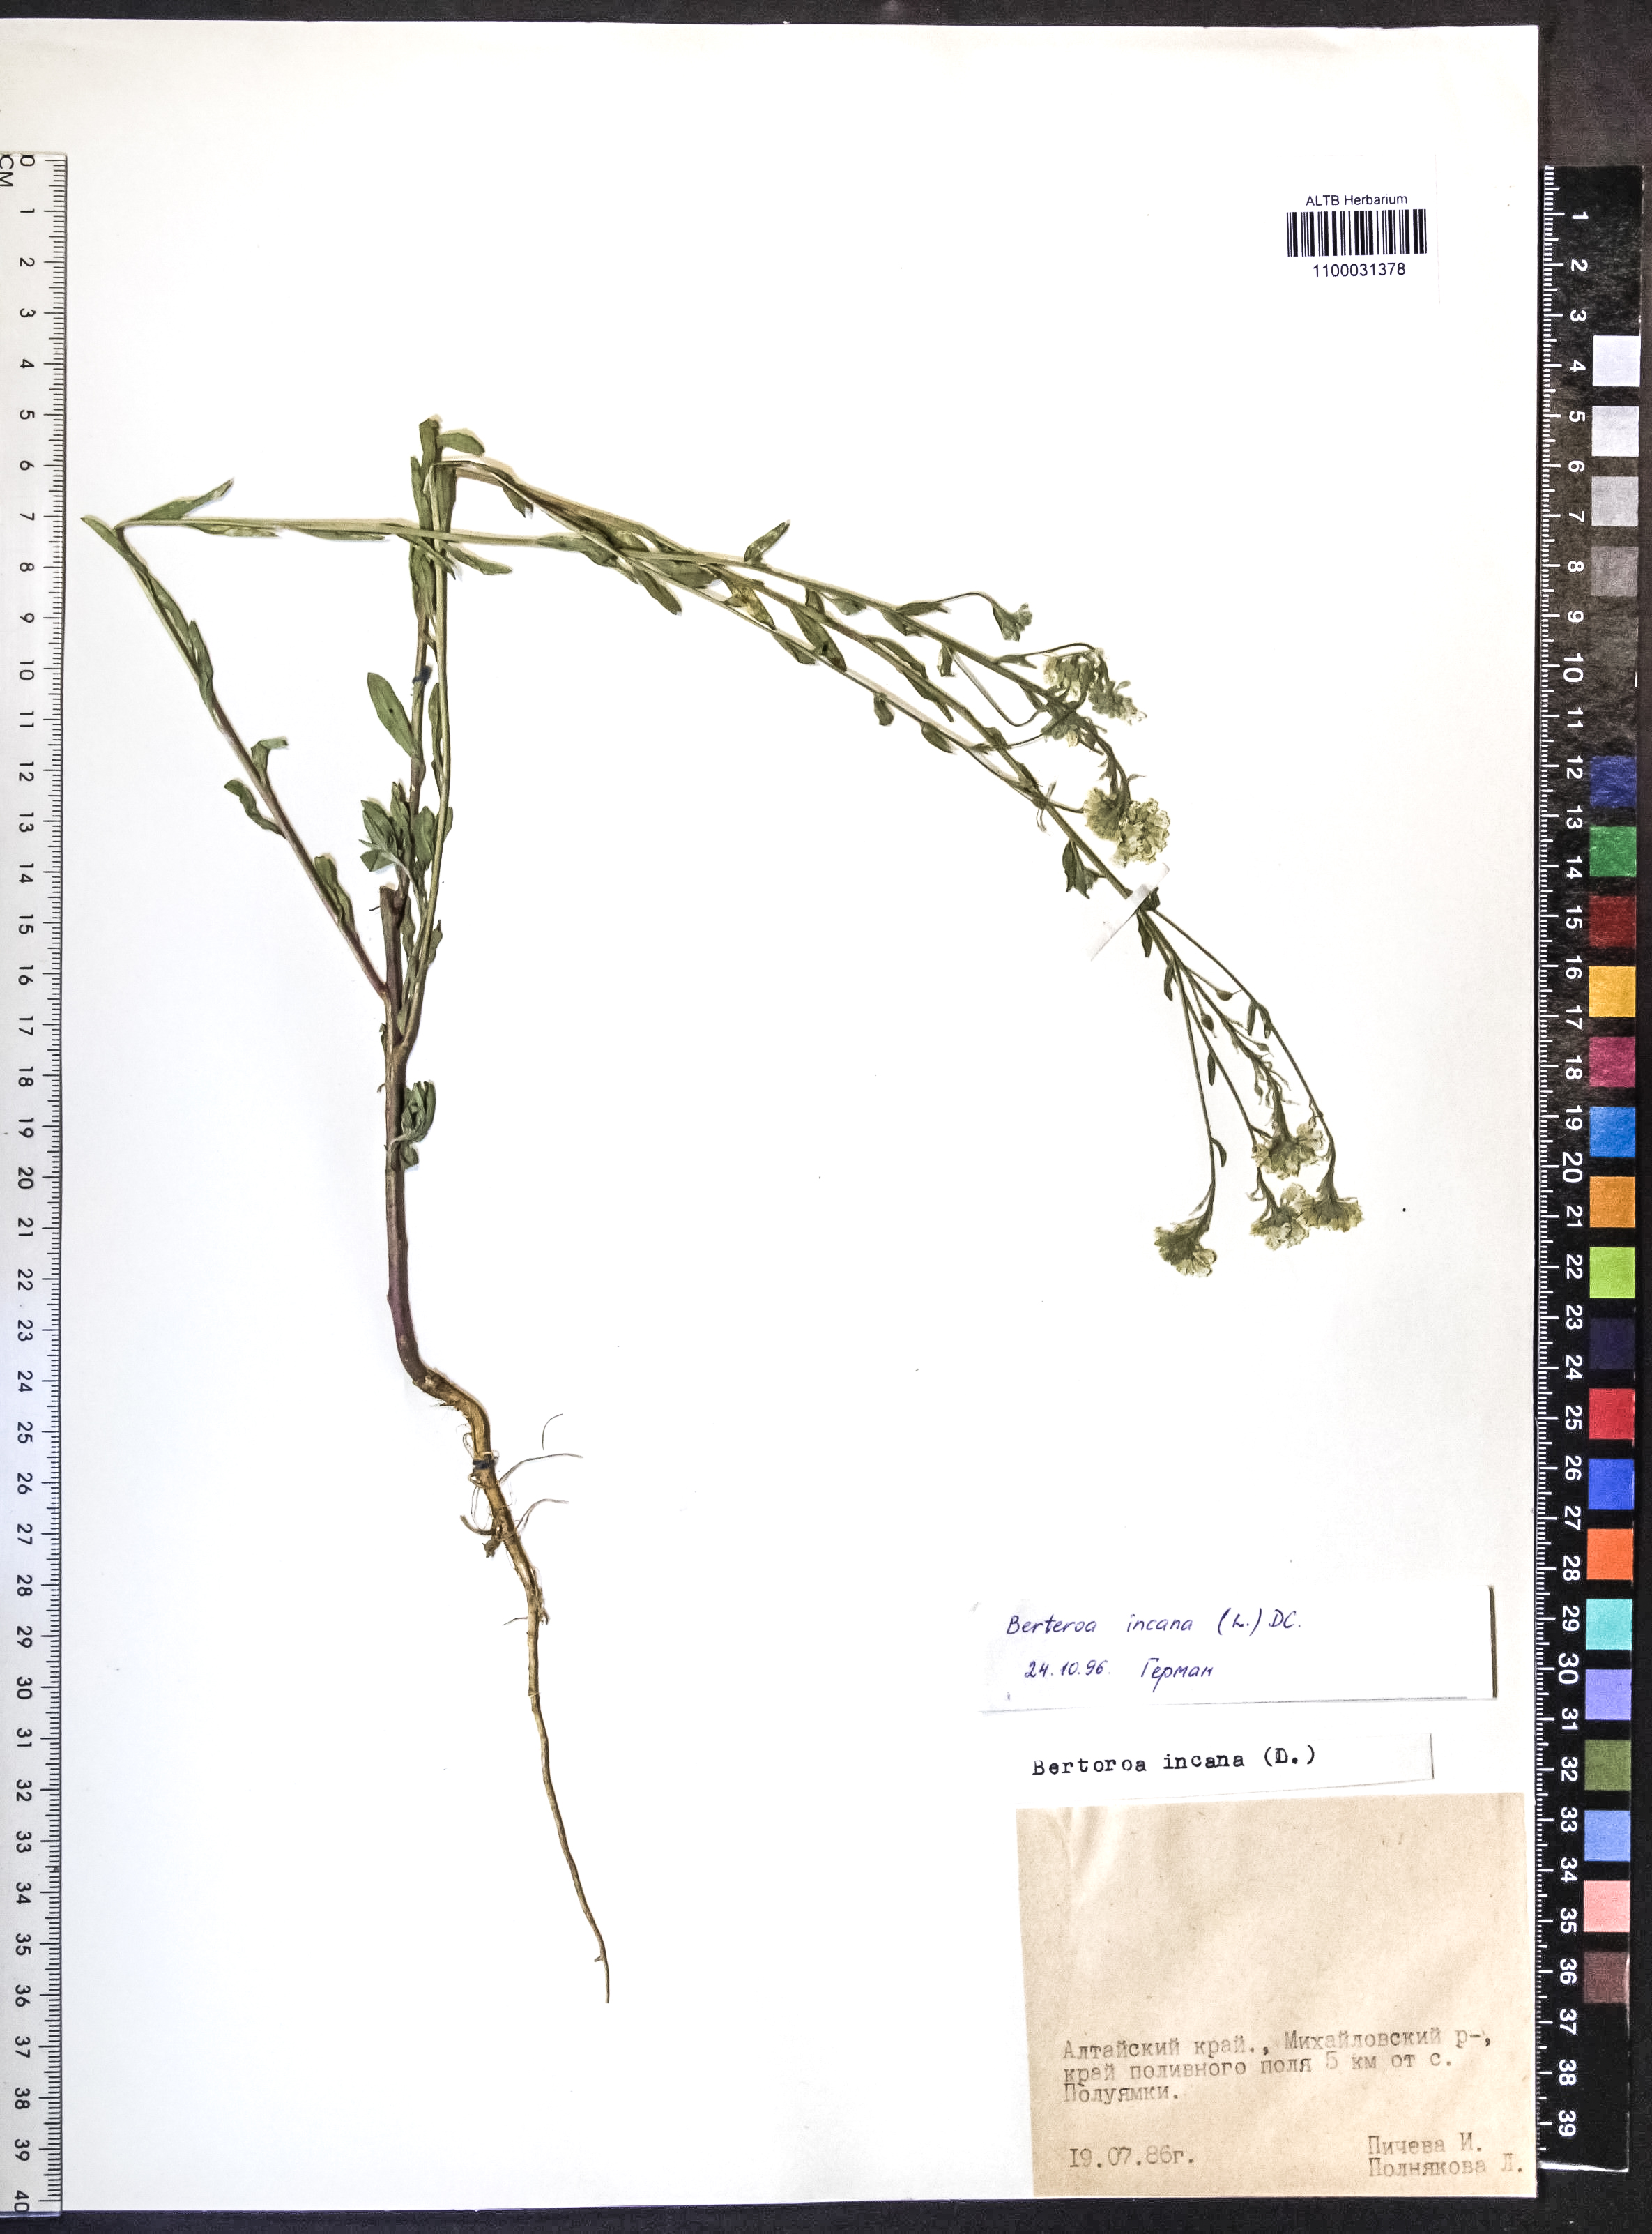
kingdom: Plantae
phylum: Tracheophyta
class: Magnoliopsida
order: Brassicales
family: Brassicaceae
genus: Berteroa
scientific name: Berteroa incana
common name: Hoary alison
